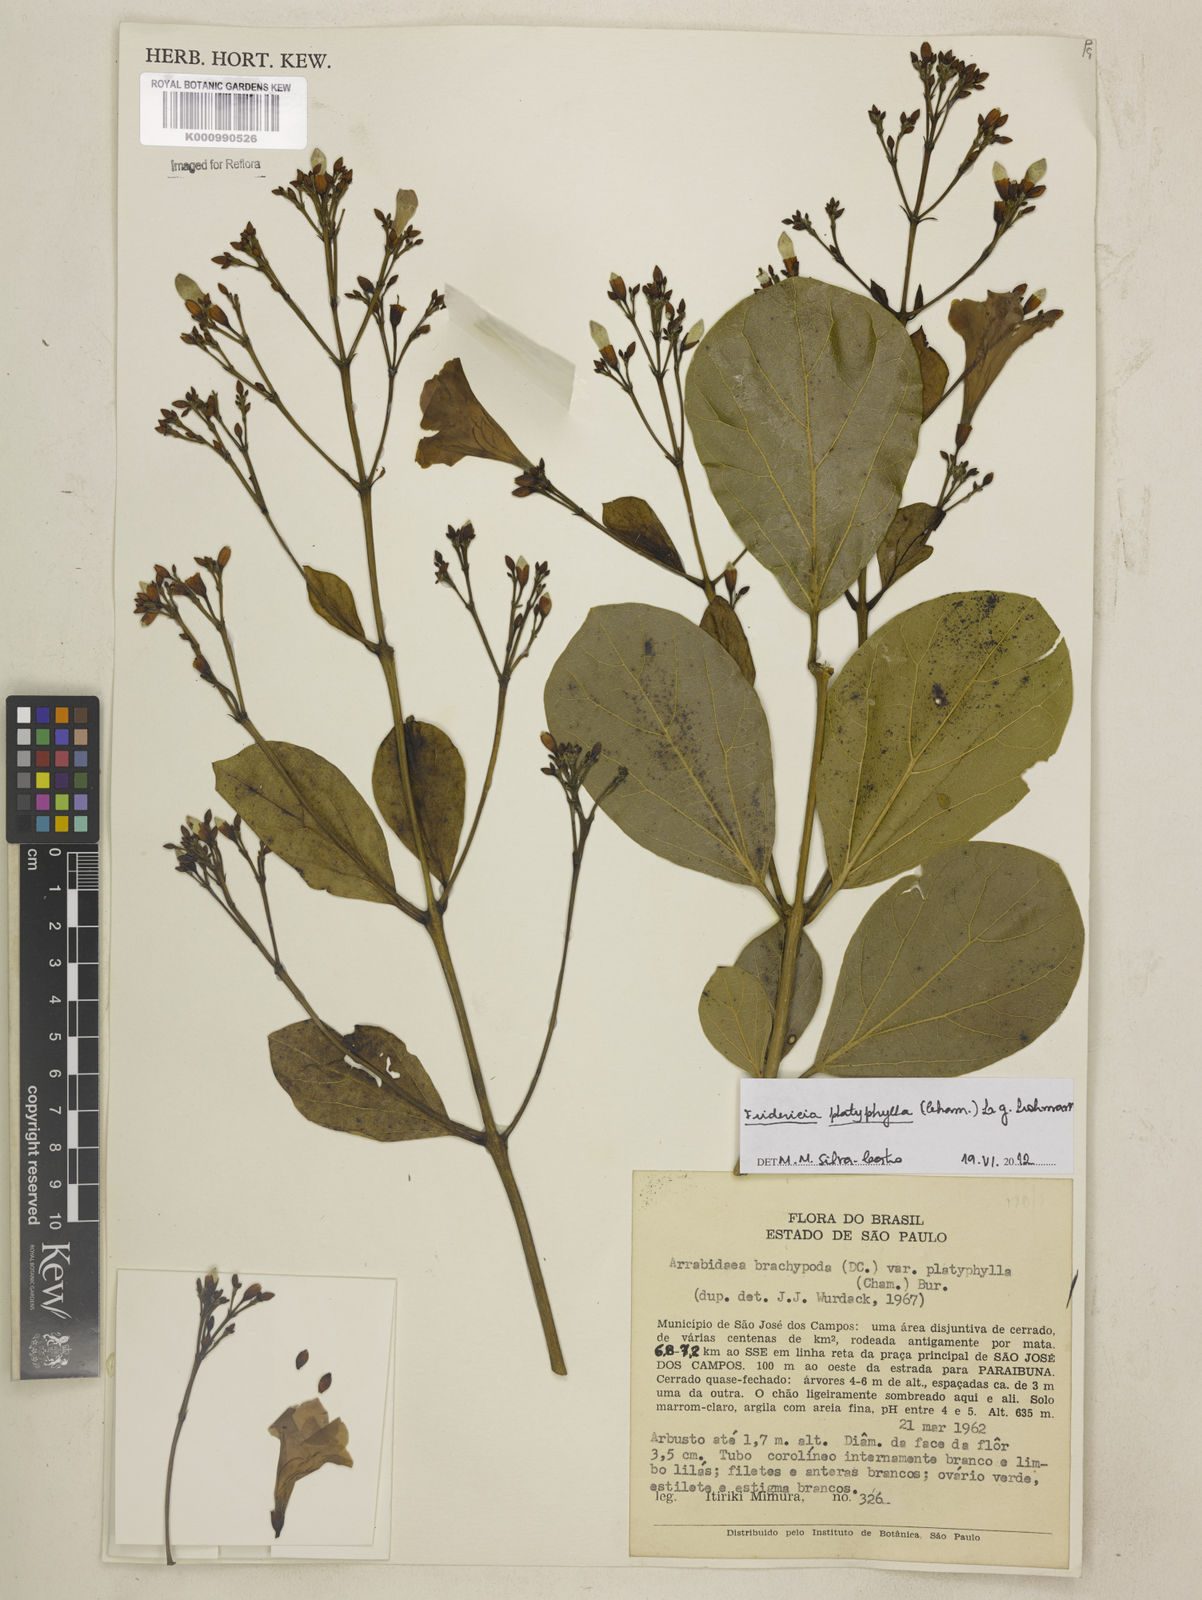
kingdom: Plantae
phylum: Tracheophyta
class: Magnoliopsida
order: Lamiales
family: Bignoniaceae
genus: Fridericia
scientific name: Fridericia platyphylla
